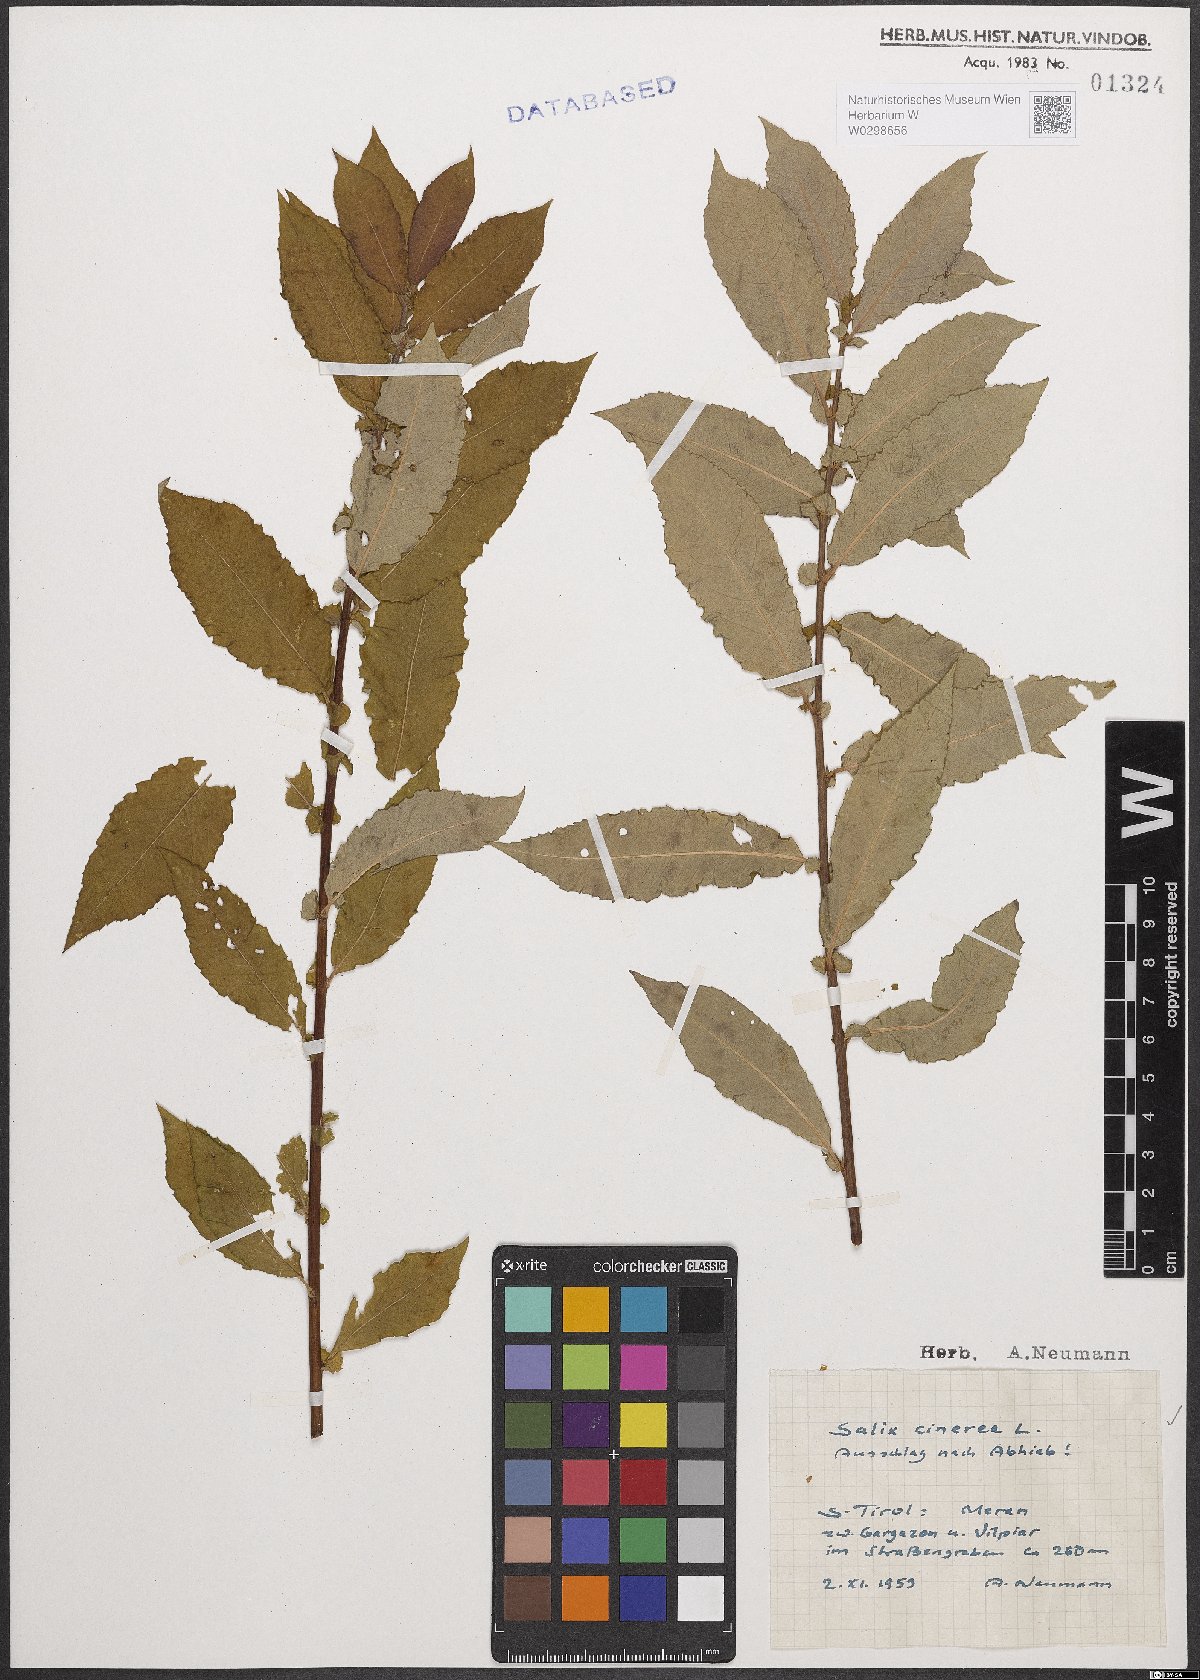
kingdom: Plantae
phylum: Tracheophyta
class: Magnoliopsida
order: Malpighiales
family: Salicaceae
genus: Salix
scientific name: Salix cinerea
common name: Common sallow
